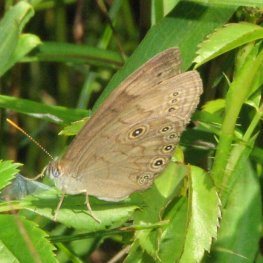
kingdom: Animalia
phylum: Arthropoda
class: Insecta
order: Lepidoptera
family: Nymphalidae
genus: Lethe
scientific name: Lethe eurydice
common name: Eyed Brown
